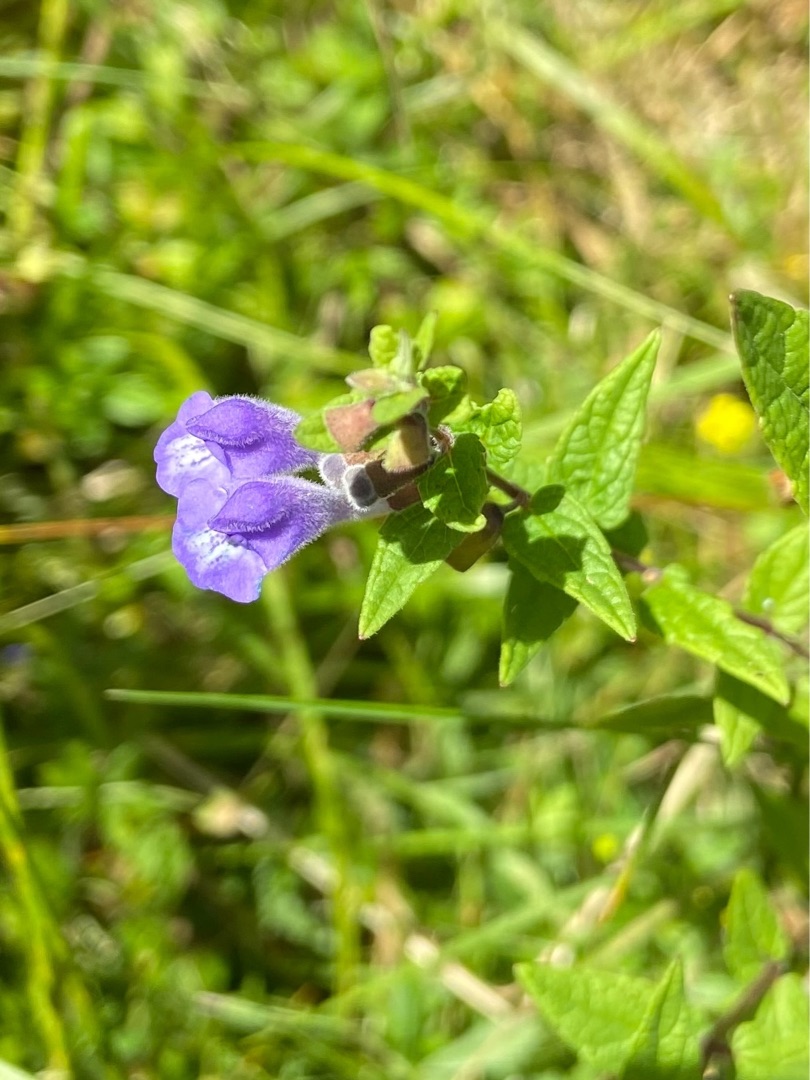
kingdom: Plantae
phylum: Tracheophyta
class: Magnoliopsida
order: Lamiales
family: Lamiaceae
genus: Scutellaria
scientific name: Scutellaria galericulata
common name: Almindelig skjolddrager
